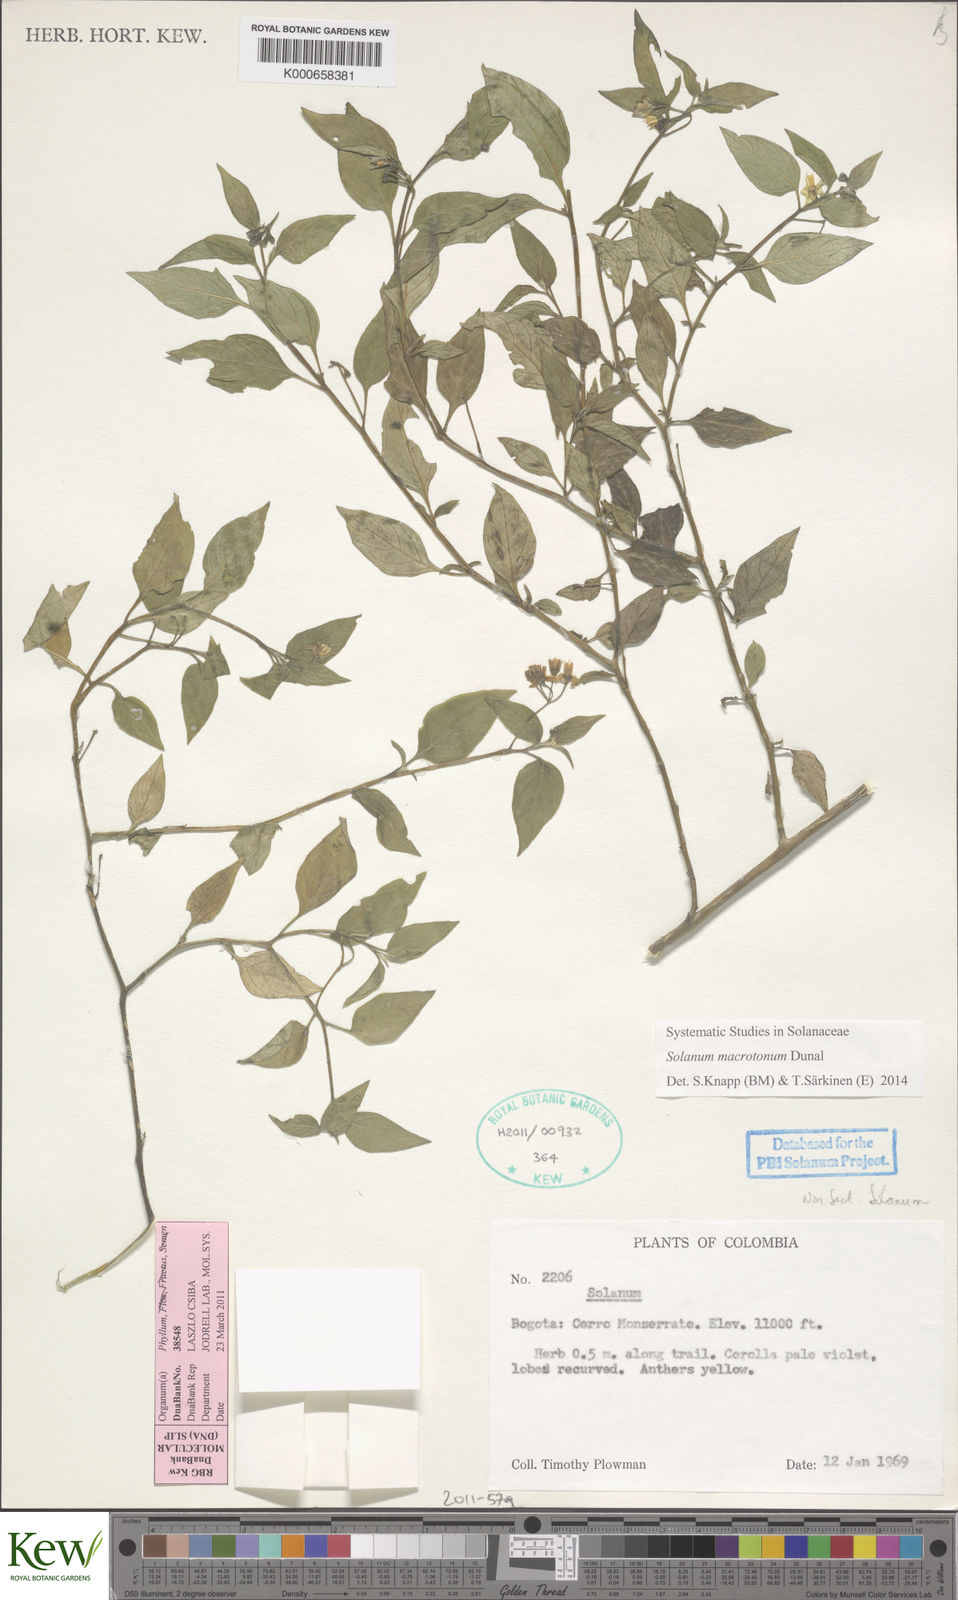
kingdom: Plantae
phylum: Tracheophyta
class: Magnoliopsida
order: Solanales
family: Solanaceae
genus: Solanum
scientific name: Solanum macrotonum
